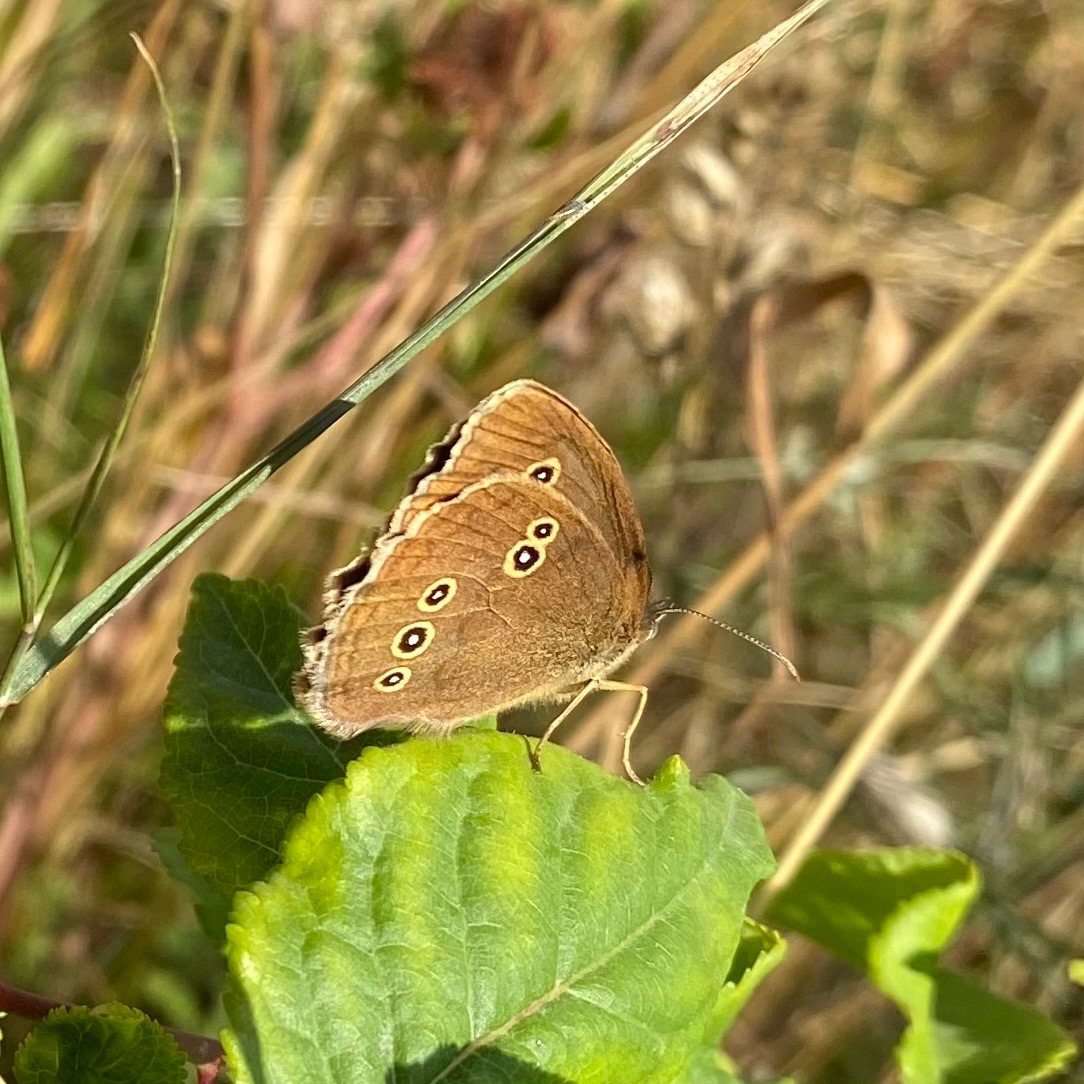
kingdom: Animalia
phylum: Arthropoda
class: Insecta
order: Lepidoptera
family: Nymphalidae
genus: Aphantopus
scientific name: Aphantopus hyperantus
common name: Engrandøje
